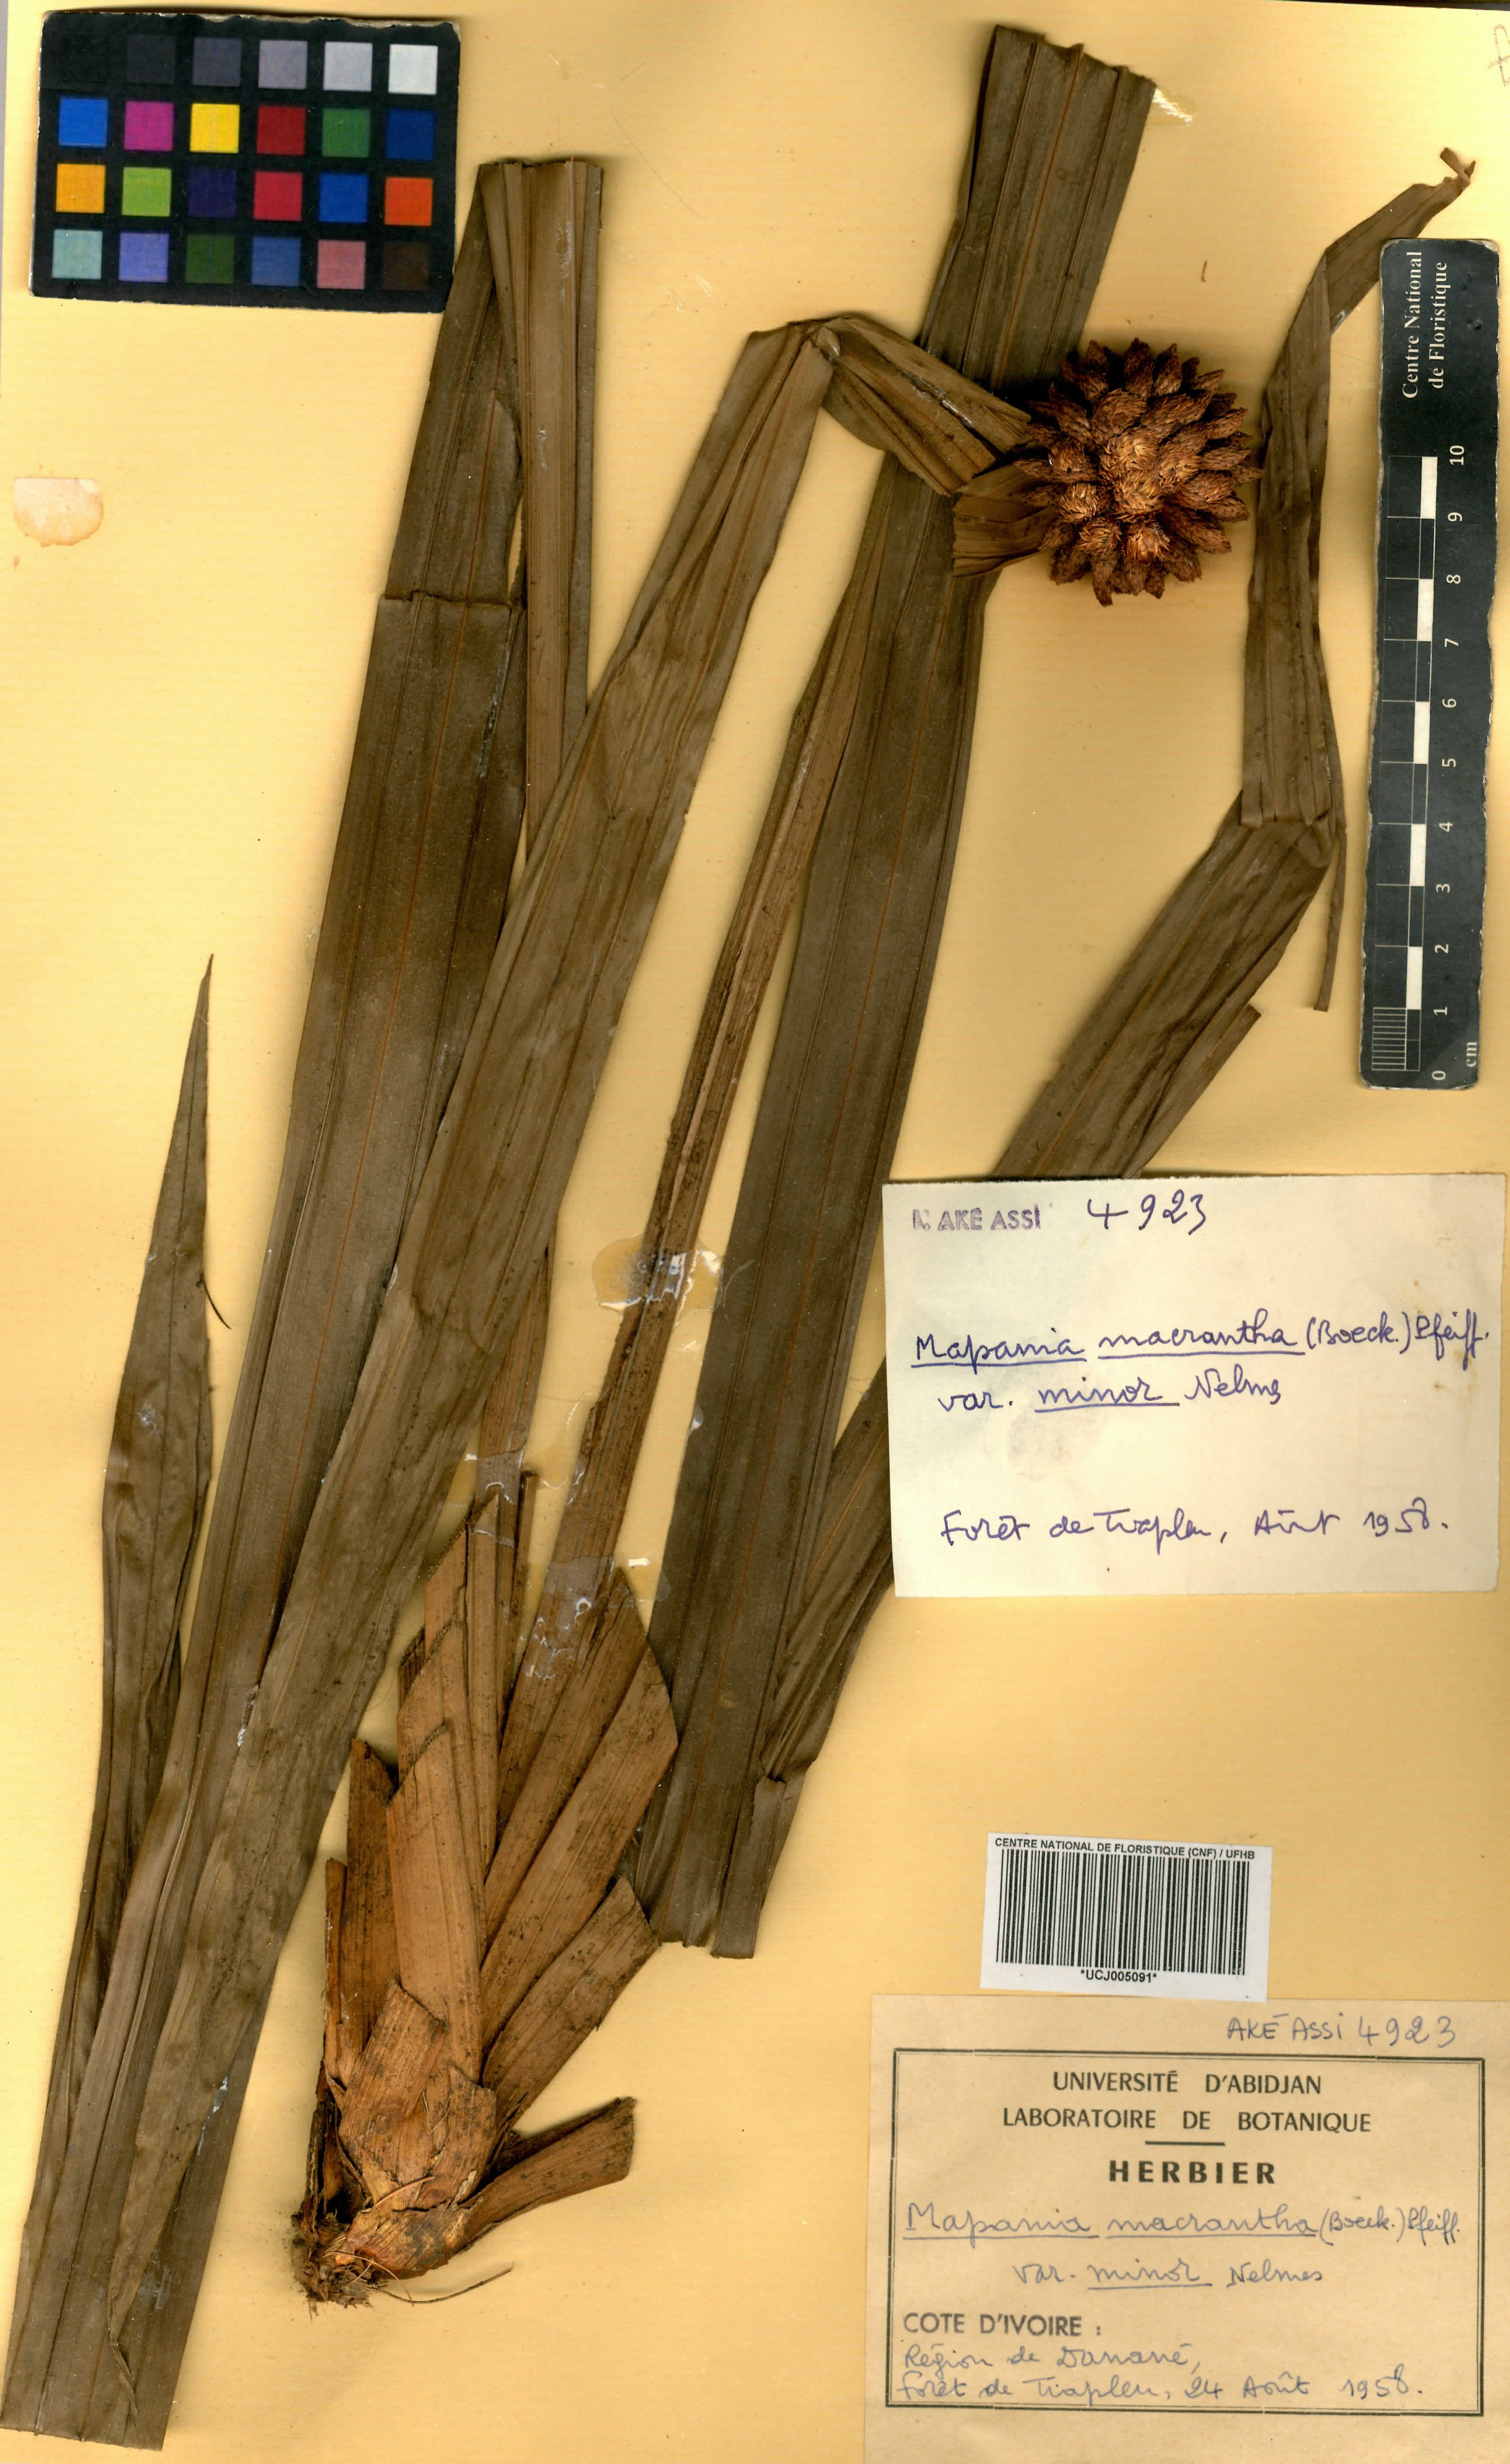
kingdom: Plantae
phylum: Tracheophyta
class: Liliopsida
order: Poales
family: Cyperaceae
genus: Mapania
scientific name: Mapania minor
